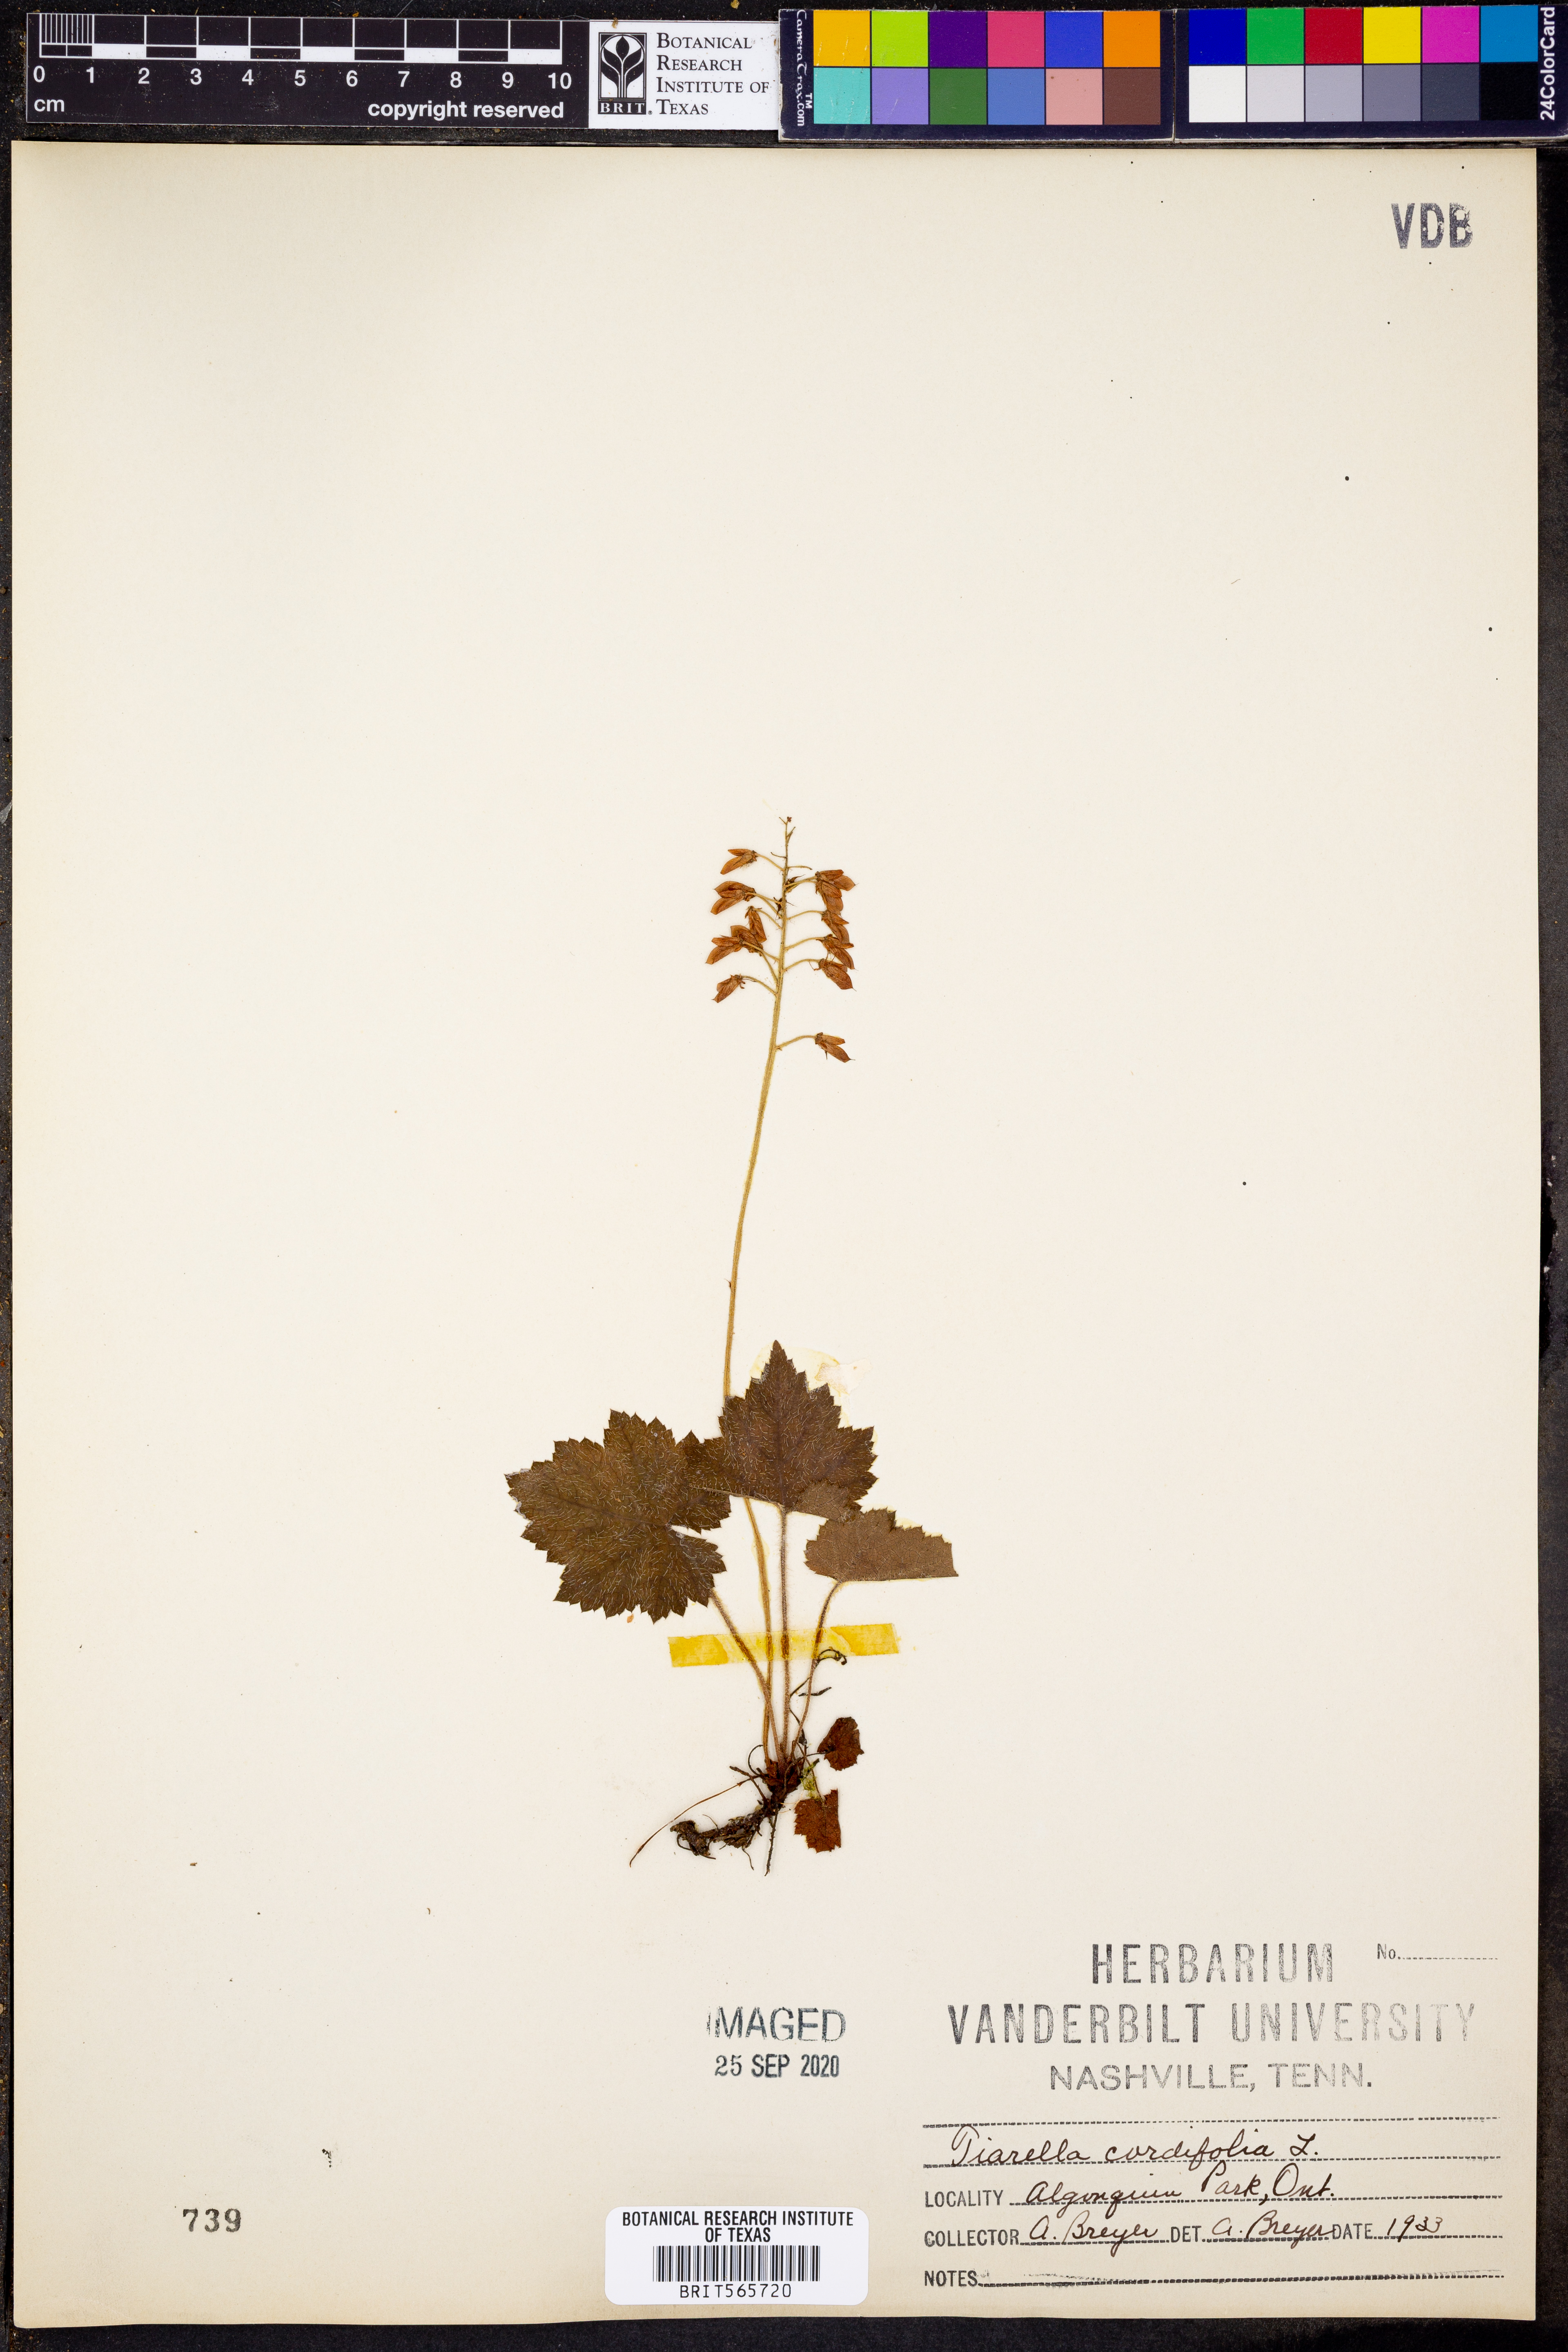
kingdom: Plantae
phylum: Tracheophyta
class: Magnoliopsida
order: Saxifragales
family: Saxifragaceae
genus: Tiarella
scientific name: Tiarella cordifolia
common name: Foamflower
